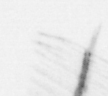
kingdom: Chromista
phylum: Ochrophyta
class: Bacillariophyceae
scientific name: Bacillariophyceae
